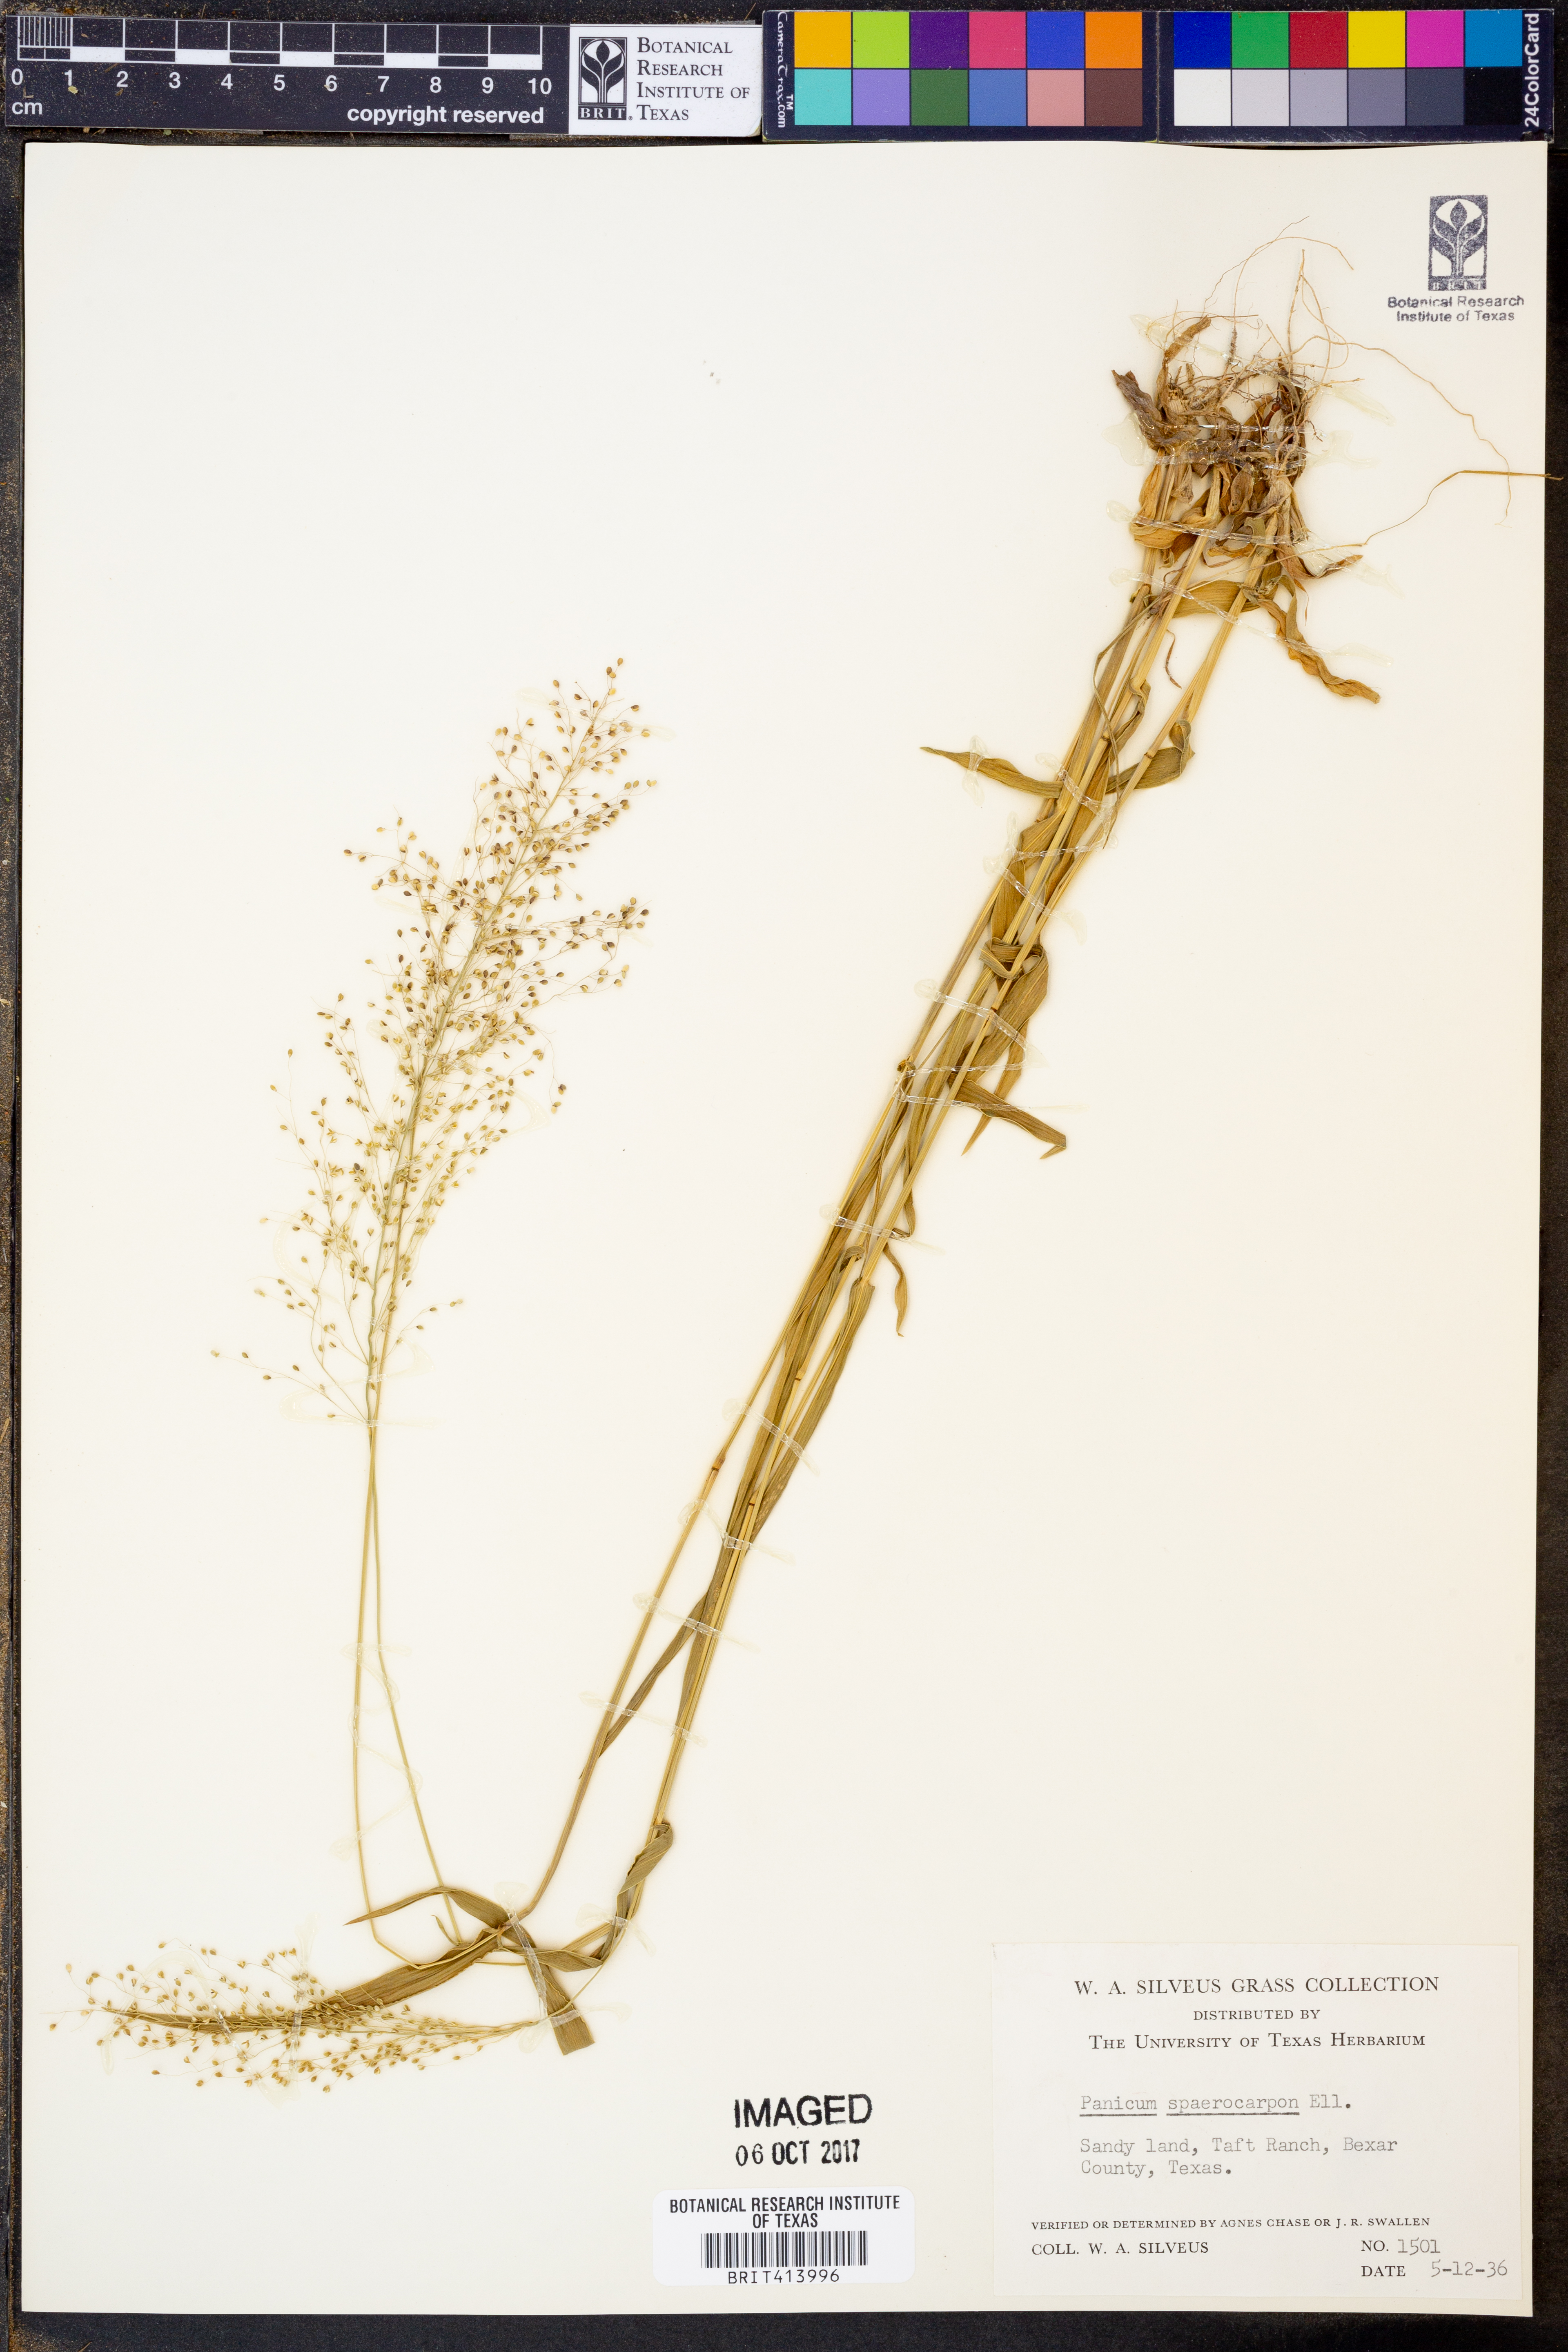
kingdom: Plantae
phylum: Tracheophyta
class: Liliopsida
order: Poales
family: Poaceae
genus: Dichanthelium
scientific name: Dichanthelium sphaerocarpon
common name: Round-fruited panicgrass
